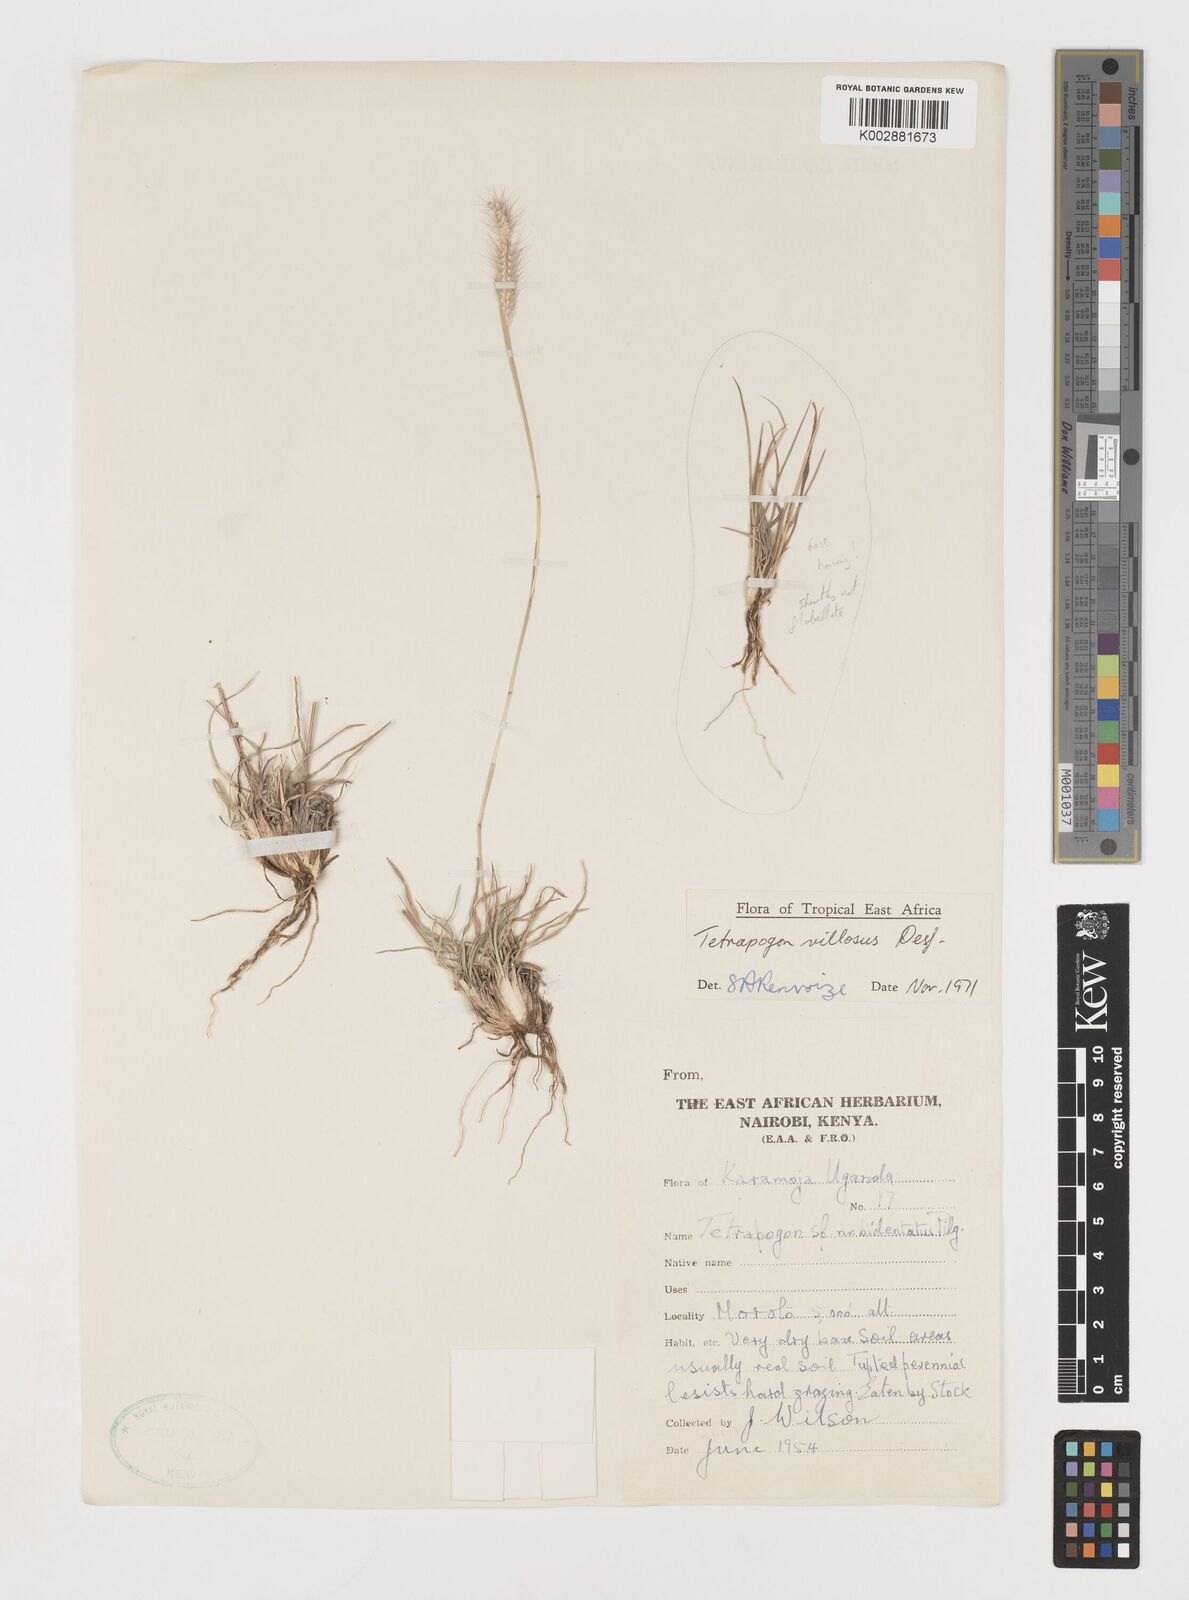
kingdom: Plantae
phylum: Tracheophyta
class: Liliopsida
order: Poales
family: Poaceae
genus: Tetrapogon
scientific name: Tetrapogon villosus
